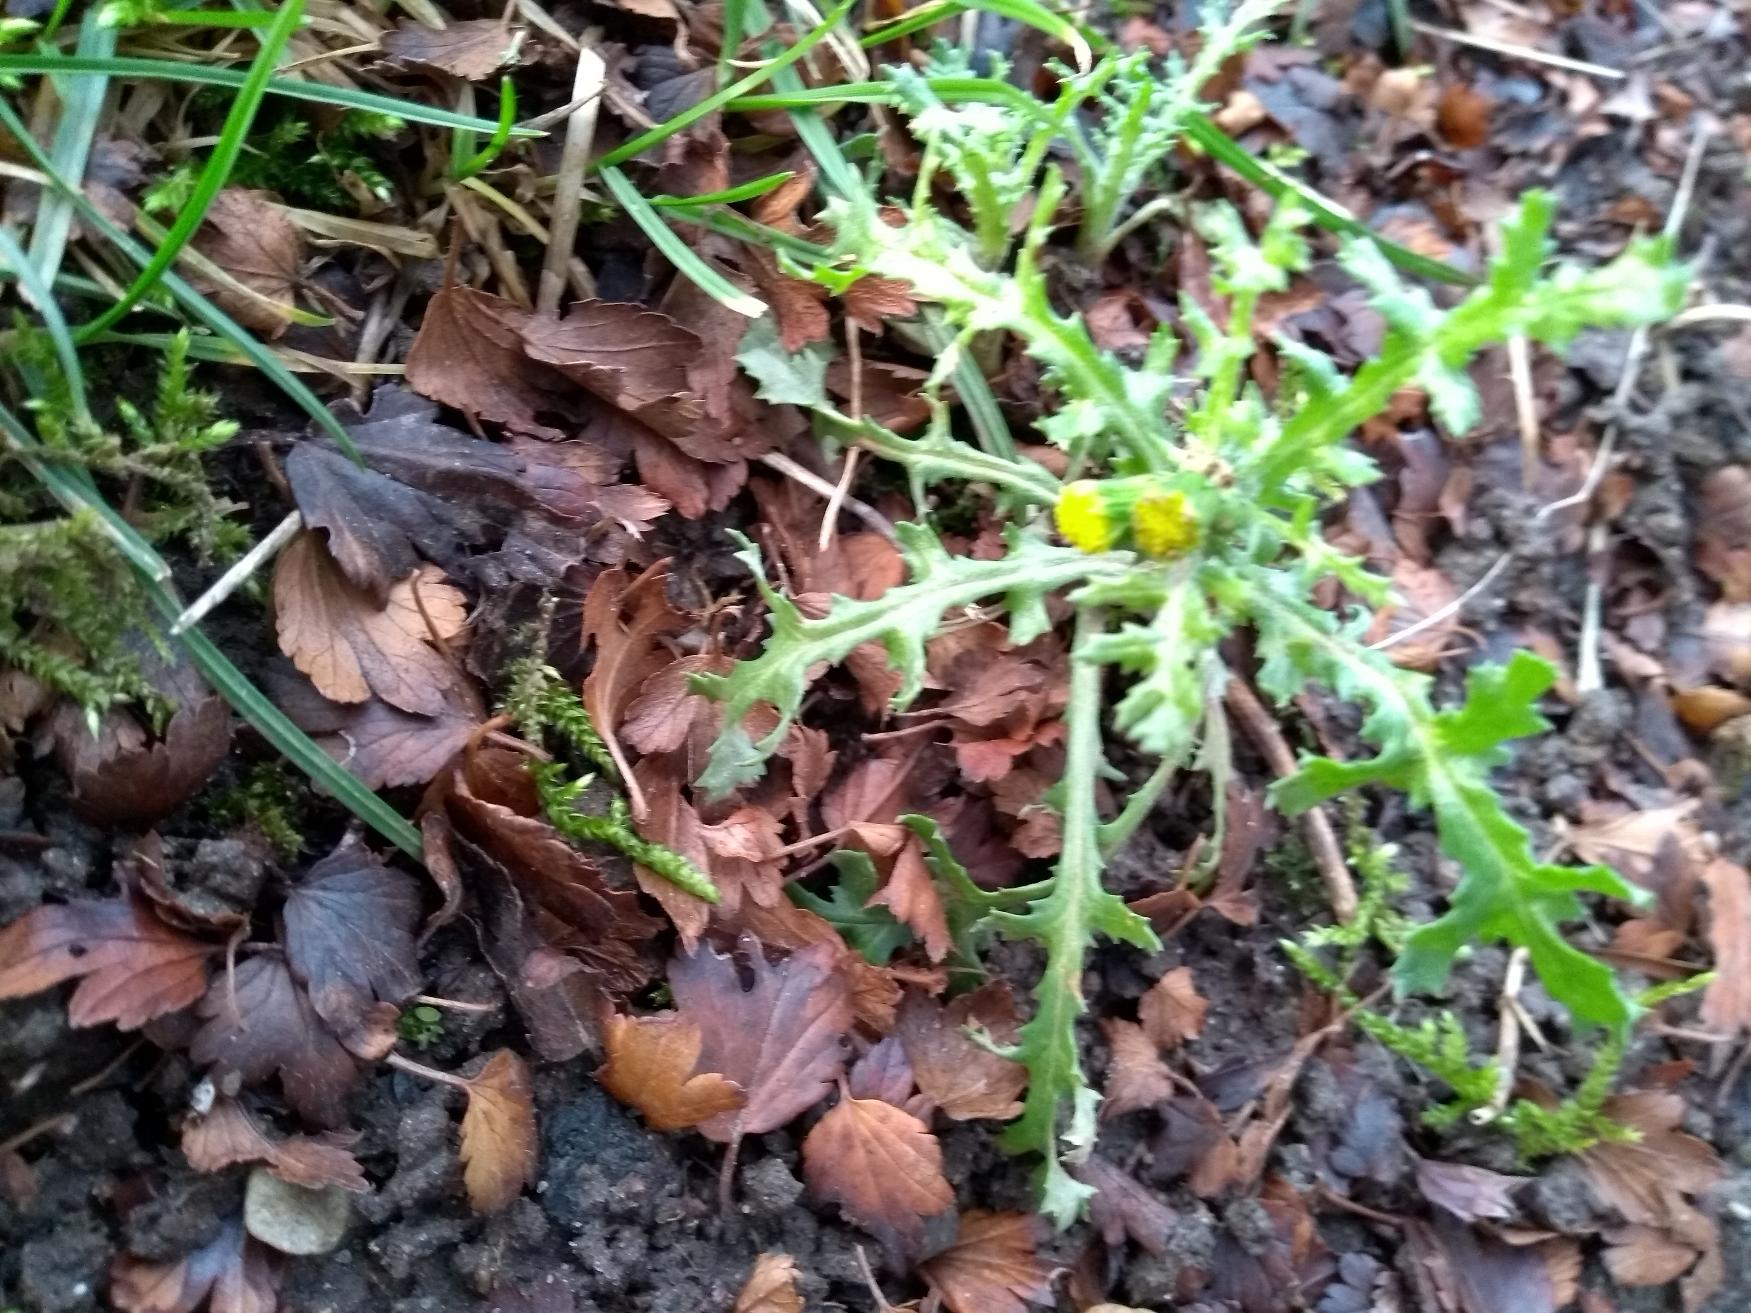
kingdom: Plantae
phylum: Tracheophyta
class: Magnoliopsida
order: Asterales
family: Asteraceae
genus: Senecio
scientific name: Senecio vulgaris
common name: Almindelig brandbæger
